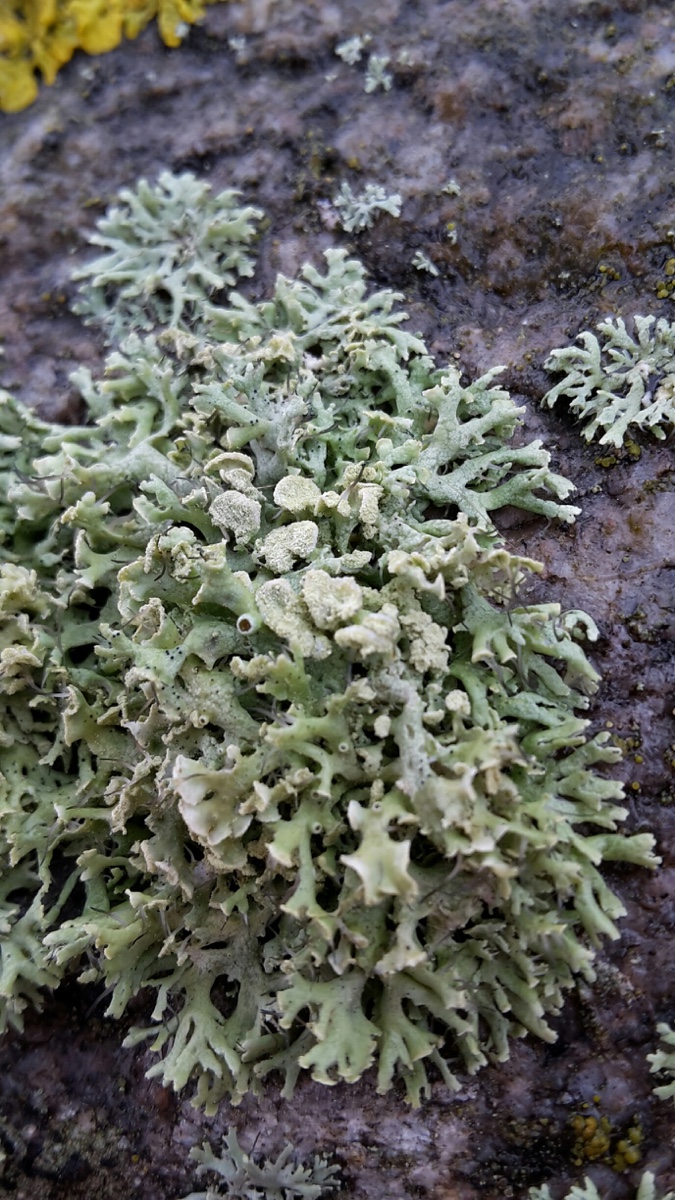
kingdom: Fungi
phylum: Ascomycota
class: Lecanoromycetes
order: Caliciales
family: Physciaceae
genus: Physcia
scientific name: Physcia tenella
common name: spæd rosetlav
